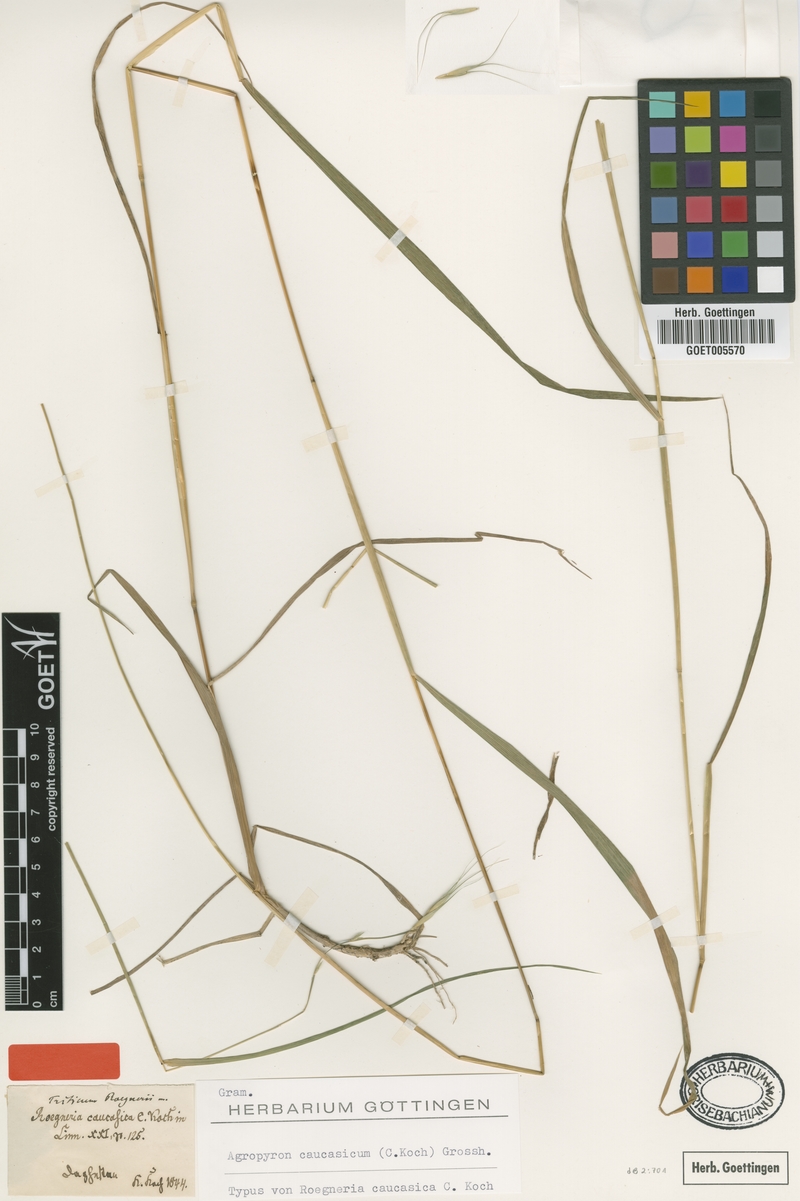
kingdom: Plantae
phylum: Tracheophyta
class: Liliopsida
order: Poales
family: Poaceae
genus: Elymus
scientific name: Elymus caucasicus
